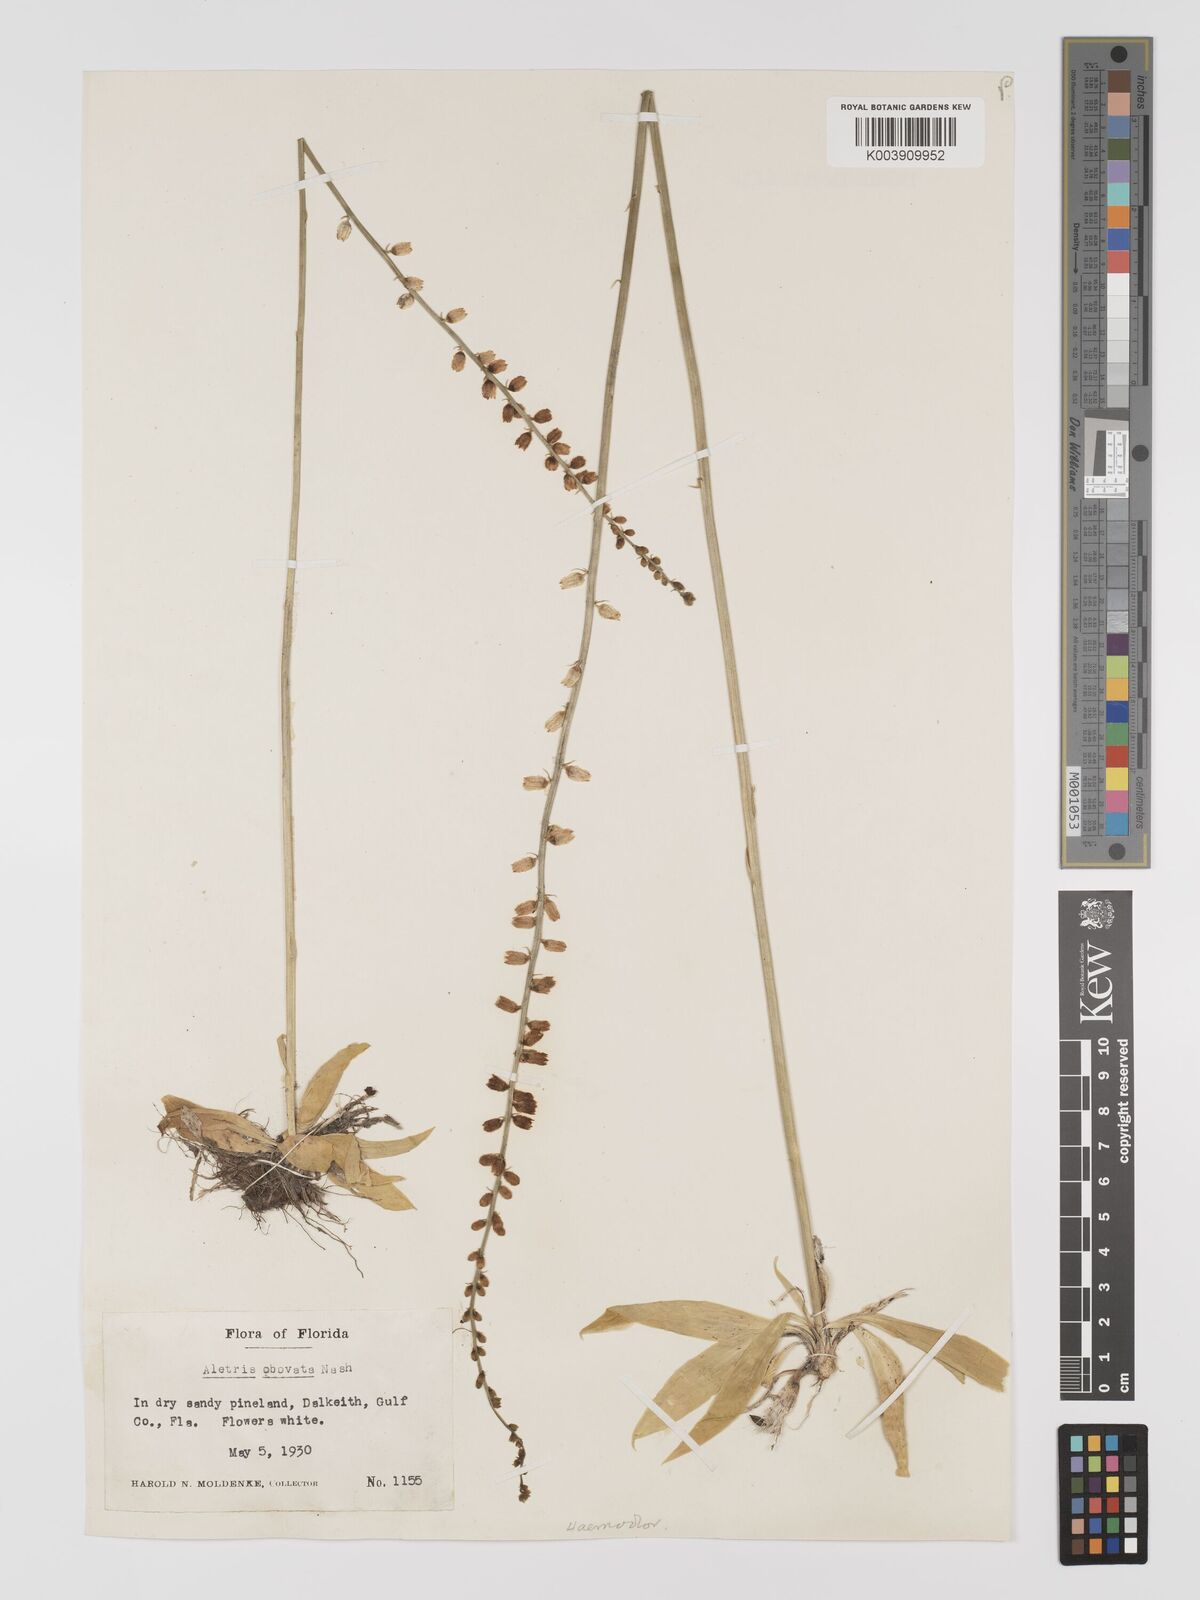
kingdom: Plantae
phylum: Tracheophyta
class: Liliopsida
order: Dioscoreales
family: Nartheciaceae
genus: Aletris
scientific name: Aletris obovata
